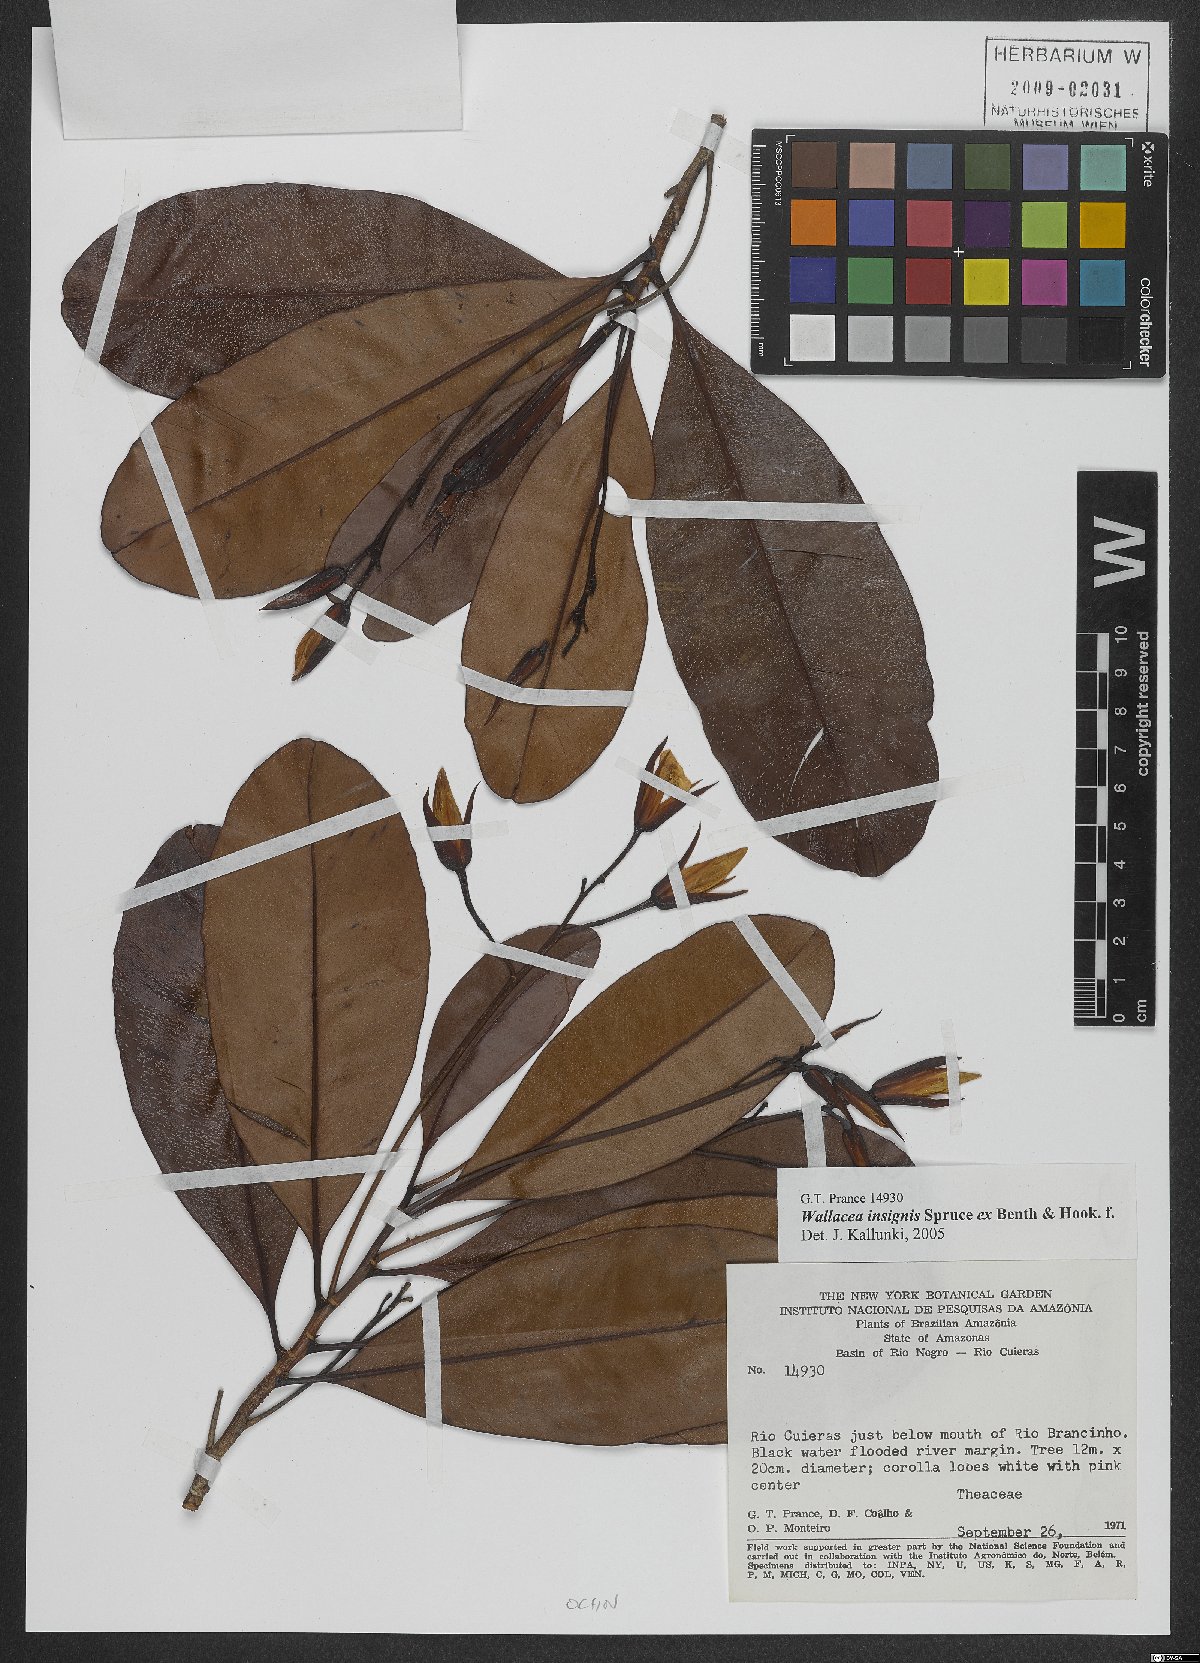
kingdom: Plantae
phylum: Tracheophyta
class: Magnoliopsida
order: Malpighiales
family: Ochnaceae
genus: Wallacea
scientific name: Wallacea insignis
